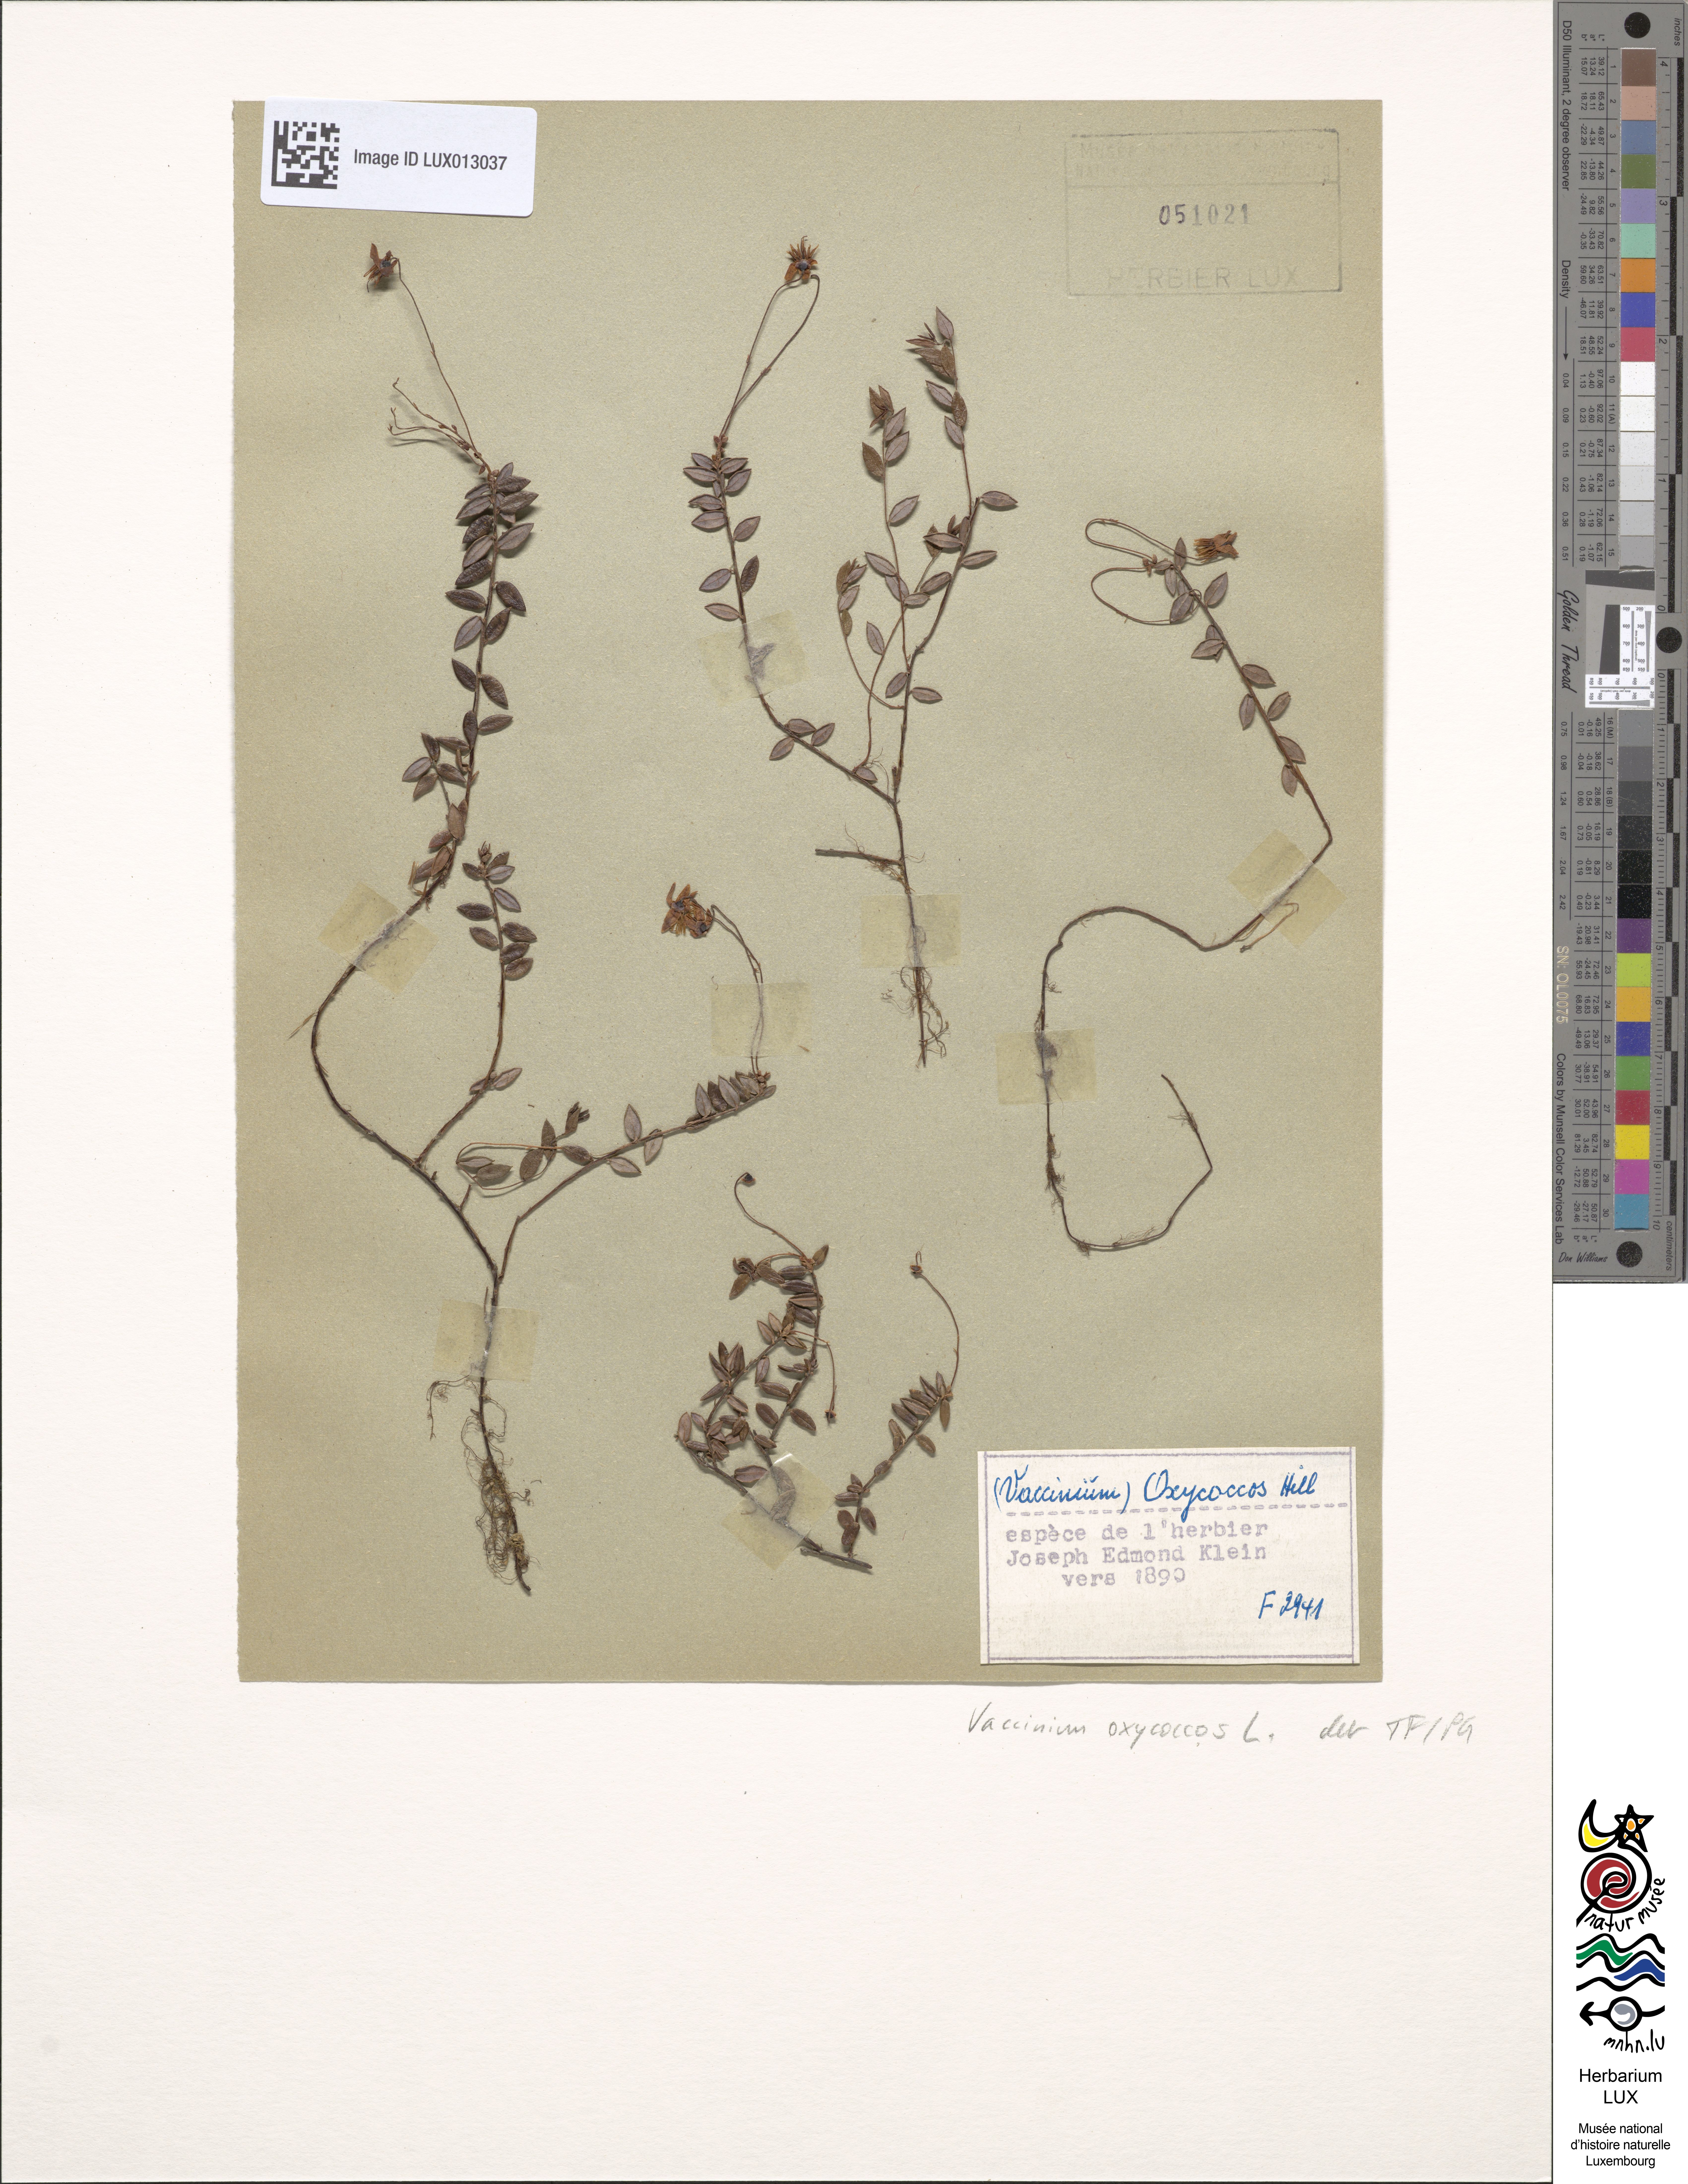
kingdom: Plantae
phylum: Tracheophyta
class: Magnoliopsida
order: Ericales
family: Ericaceae
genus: Vaccinium
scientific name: Vaccinium oxycoccos
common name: Cranberry
